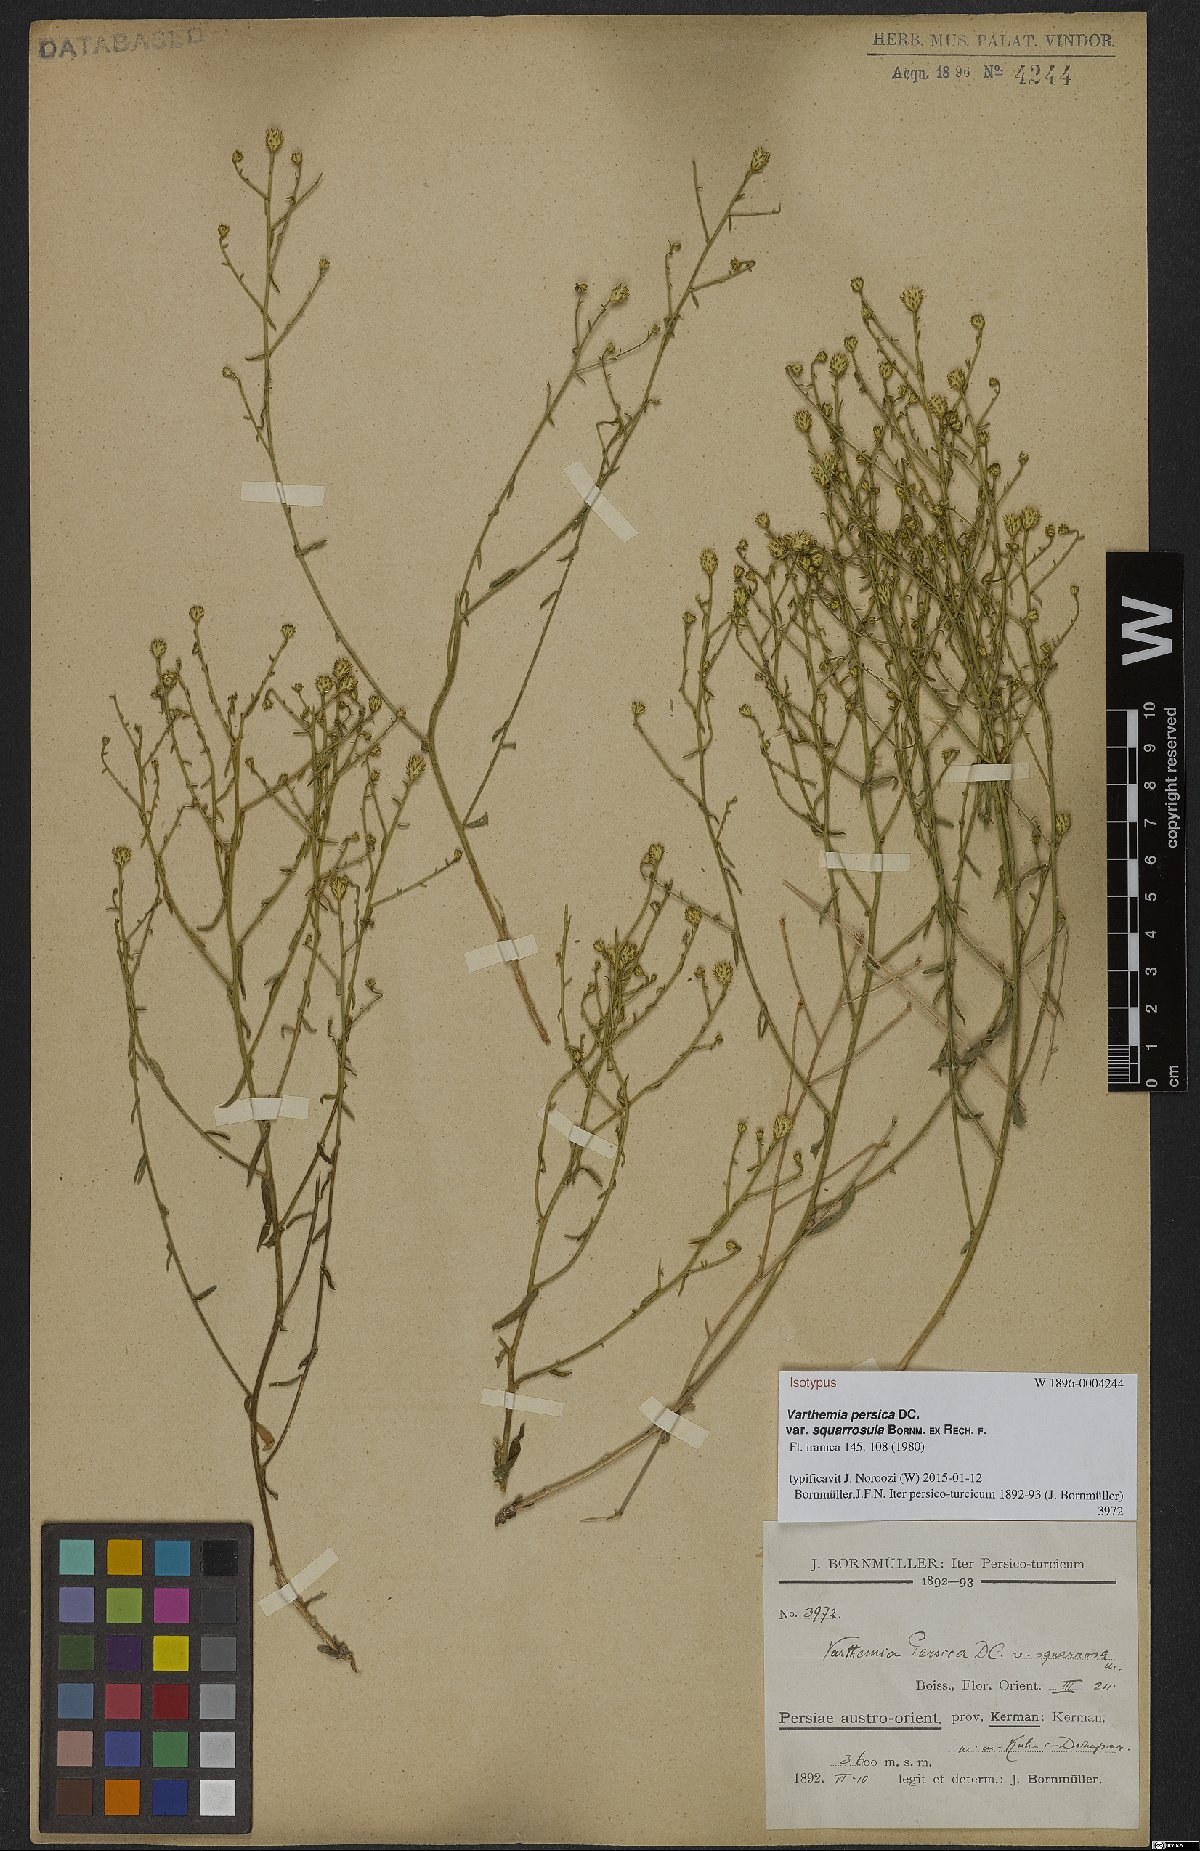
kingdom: Plantae
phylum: Tracheophyta
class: Magnoliopsida
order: Asterales
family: Asteraceae
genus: Pentanema
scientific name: Pentanema persicum
